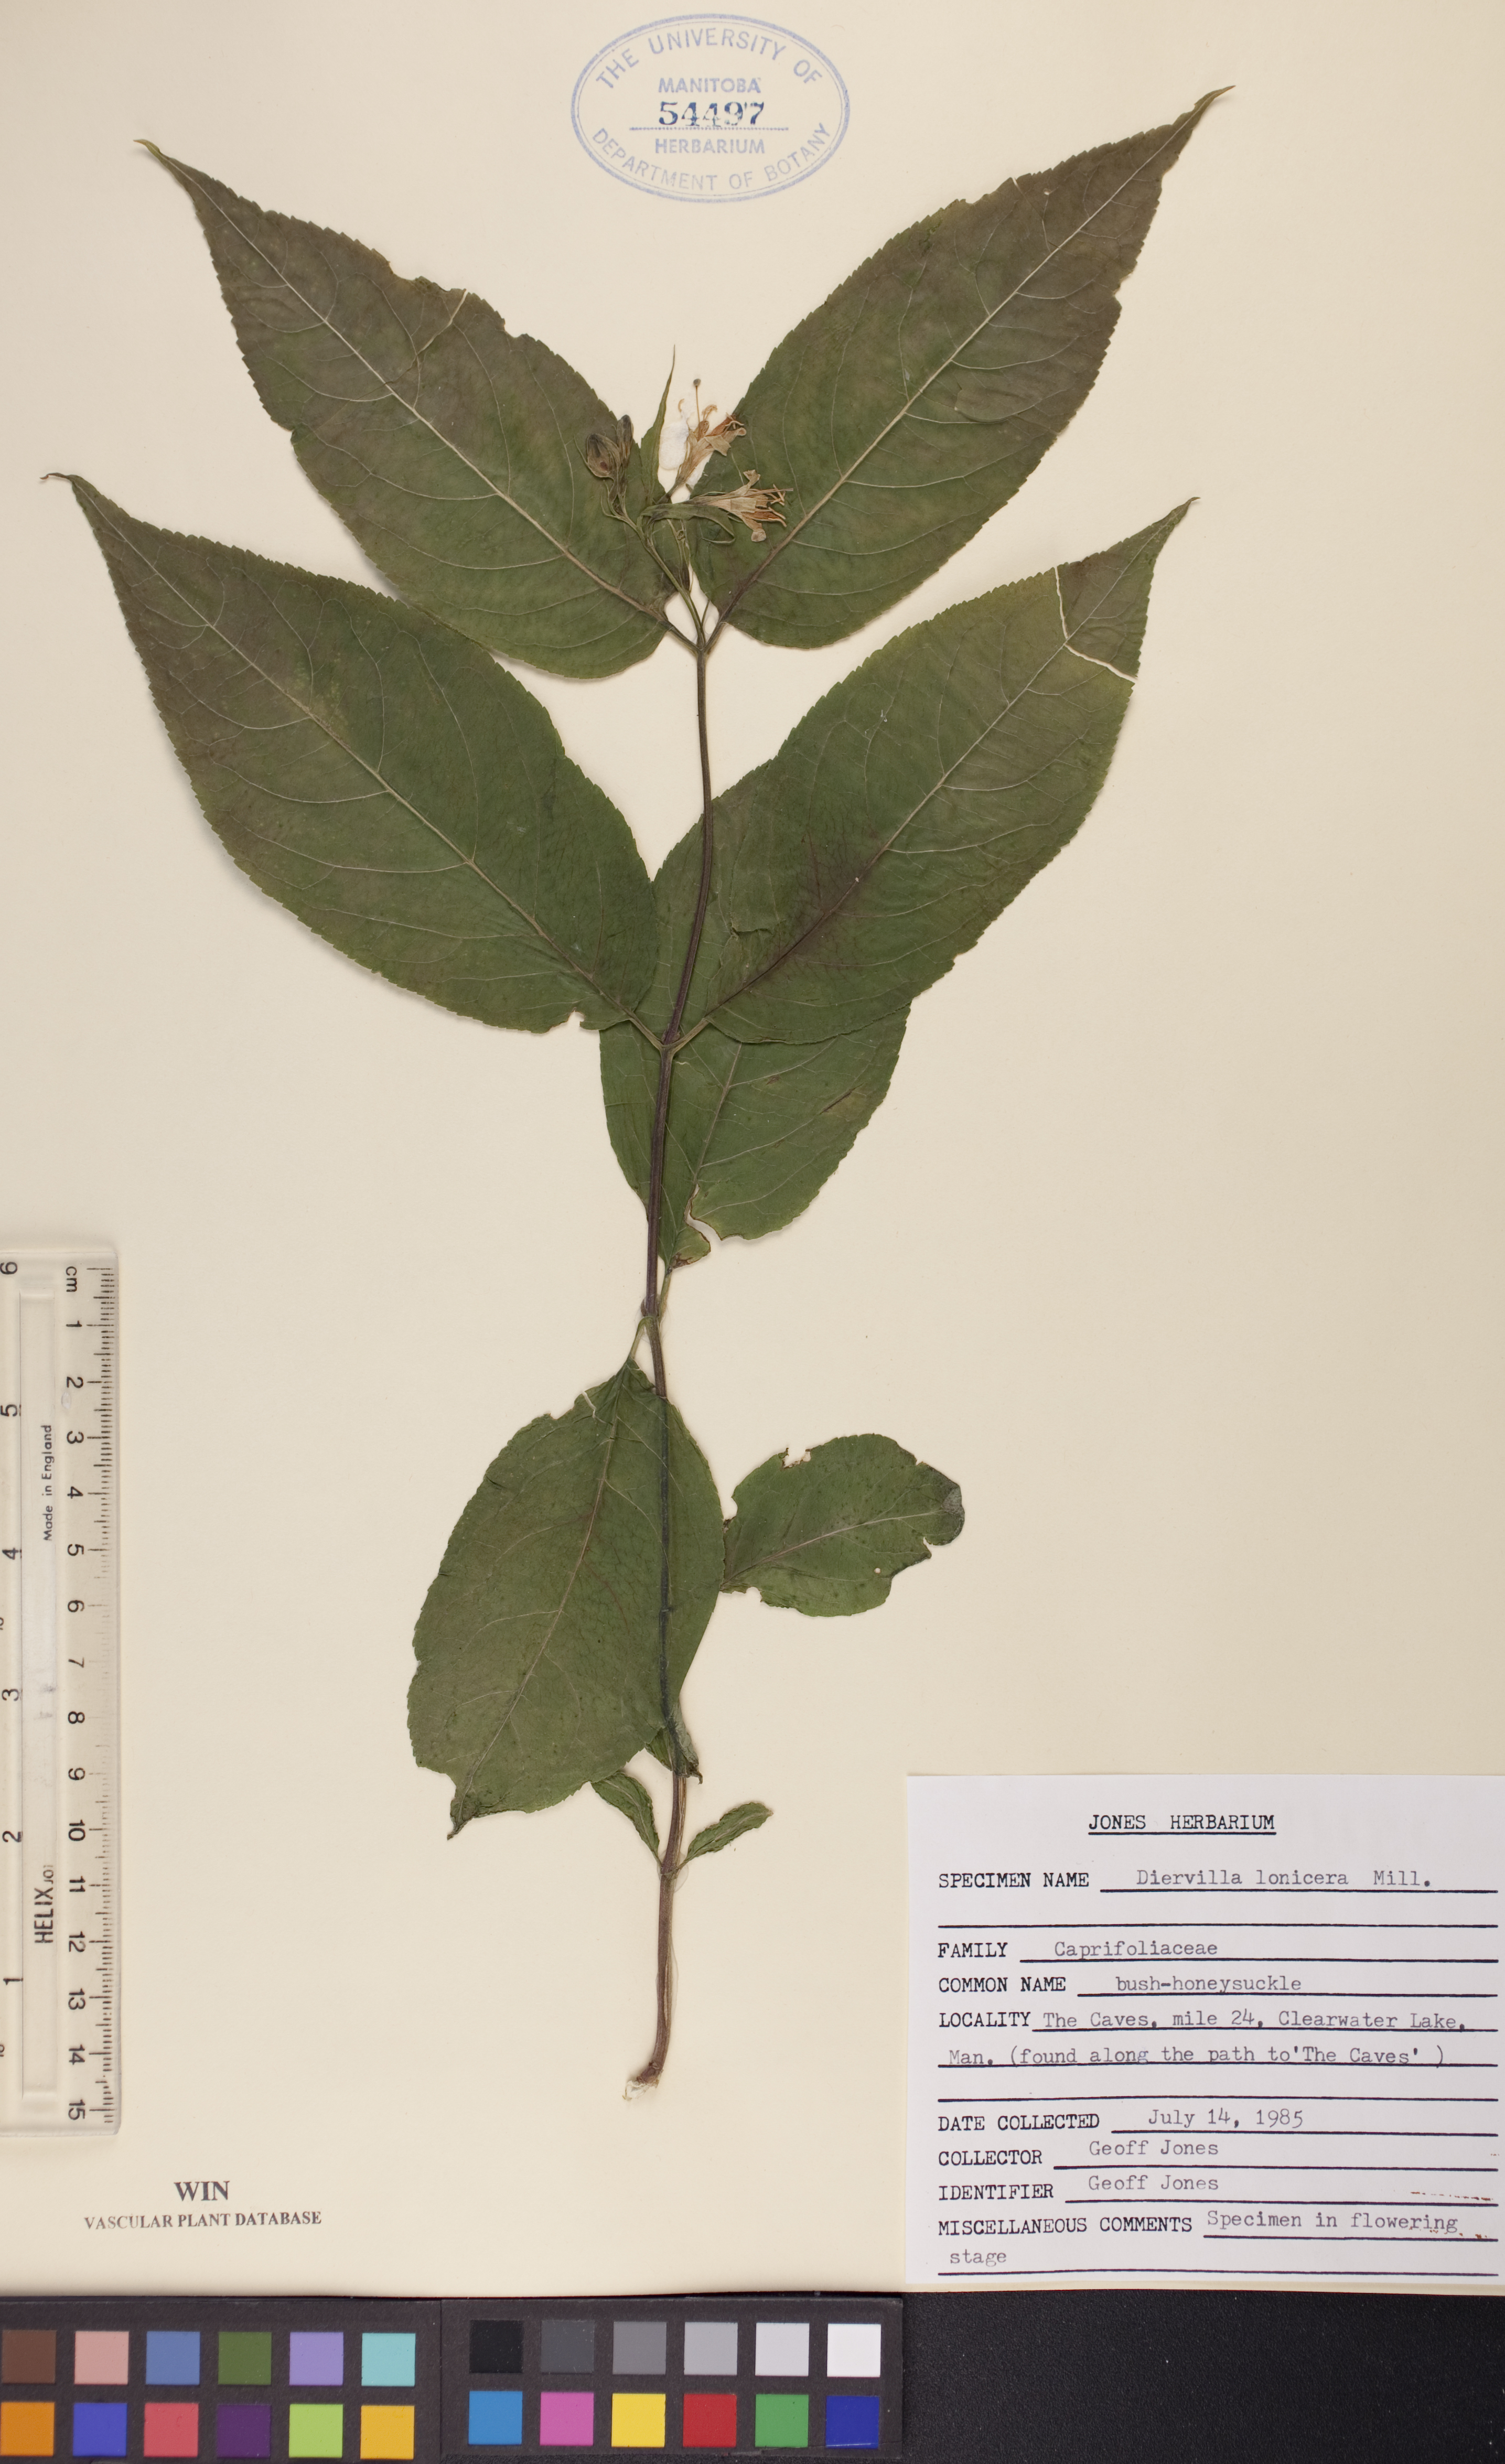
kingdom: Plantae
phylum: Tracheophyta
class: Magnoliopsida
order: Dipsacales
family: Caprifoliaceae
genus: Diervilla
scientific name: Diervilla lonicera
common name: Bush-honeysuckle
